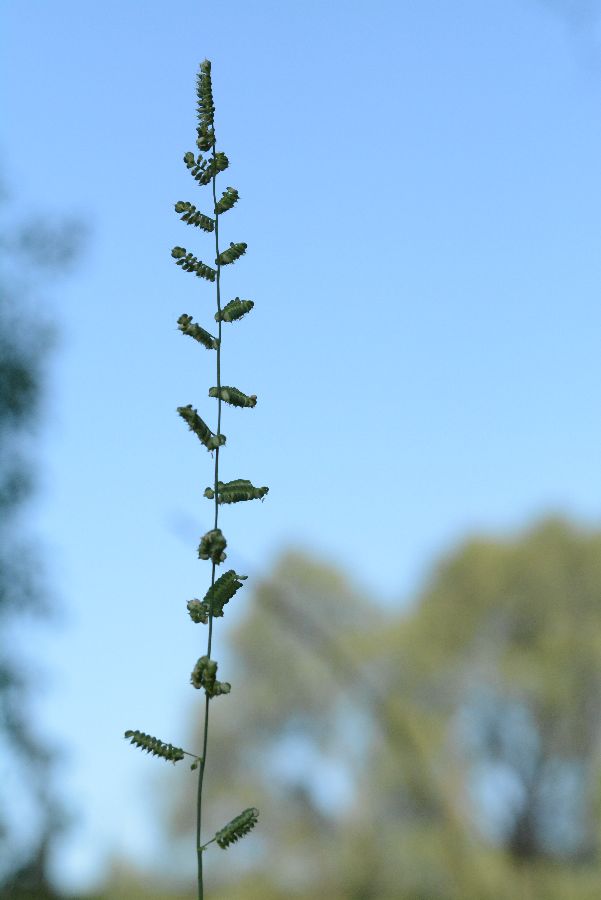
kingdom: Plantae
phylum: Tracheophyta
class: Liliopsida
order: Poales
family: Poaceae
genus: Beckmannia
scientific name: Beckmannia eruciformis
